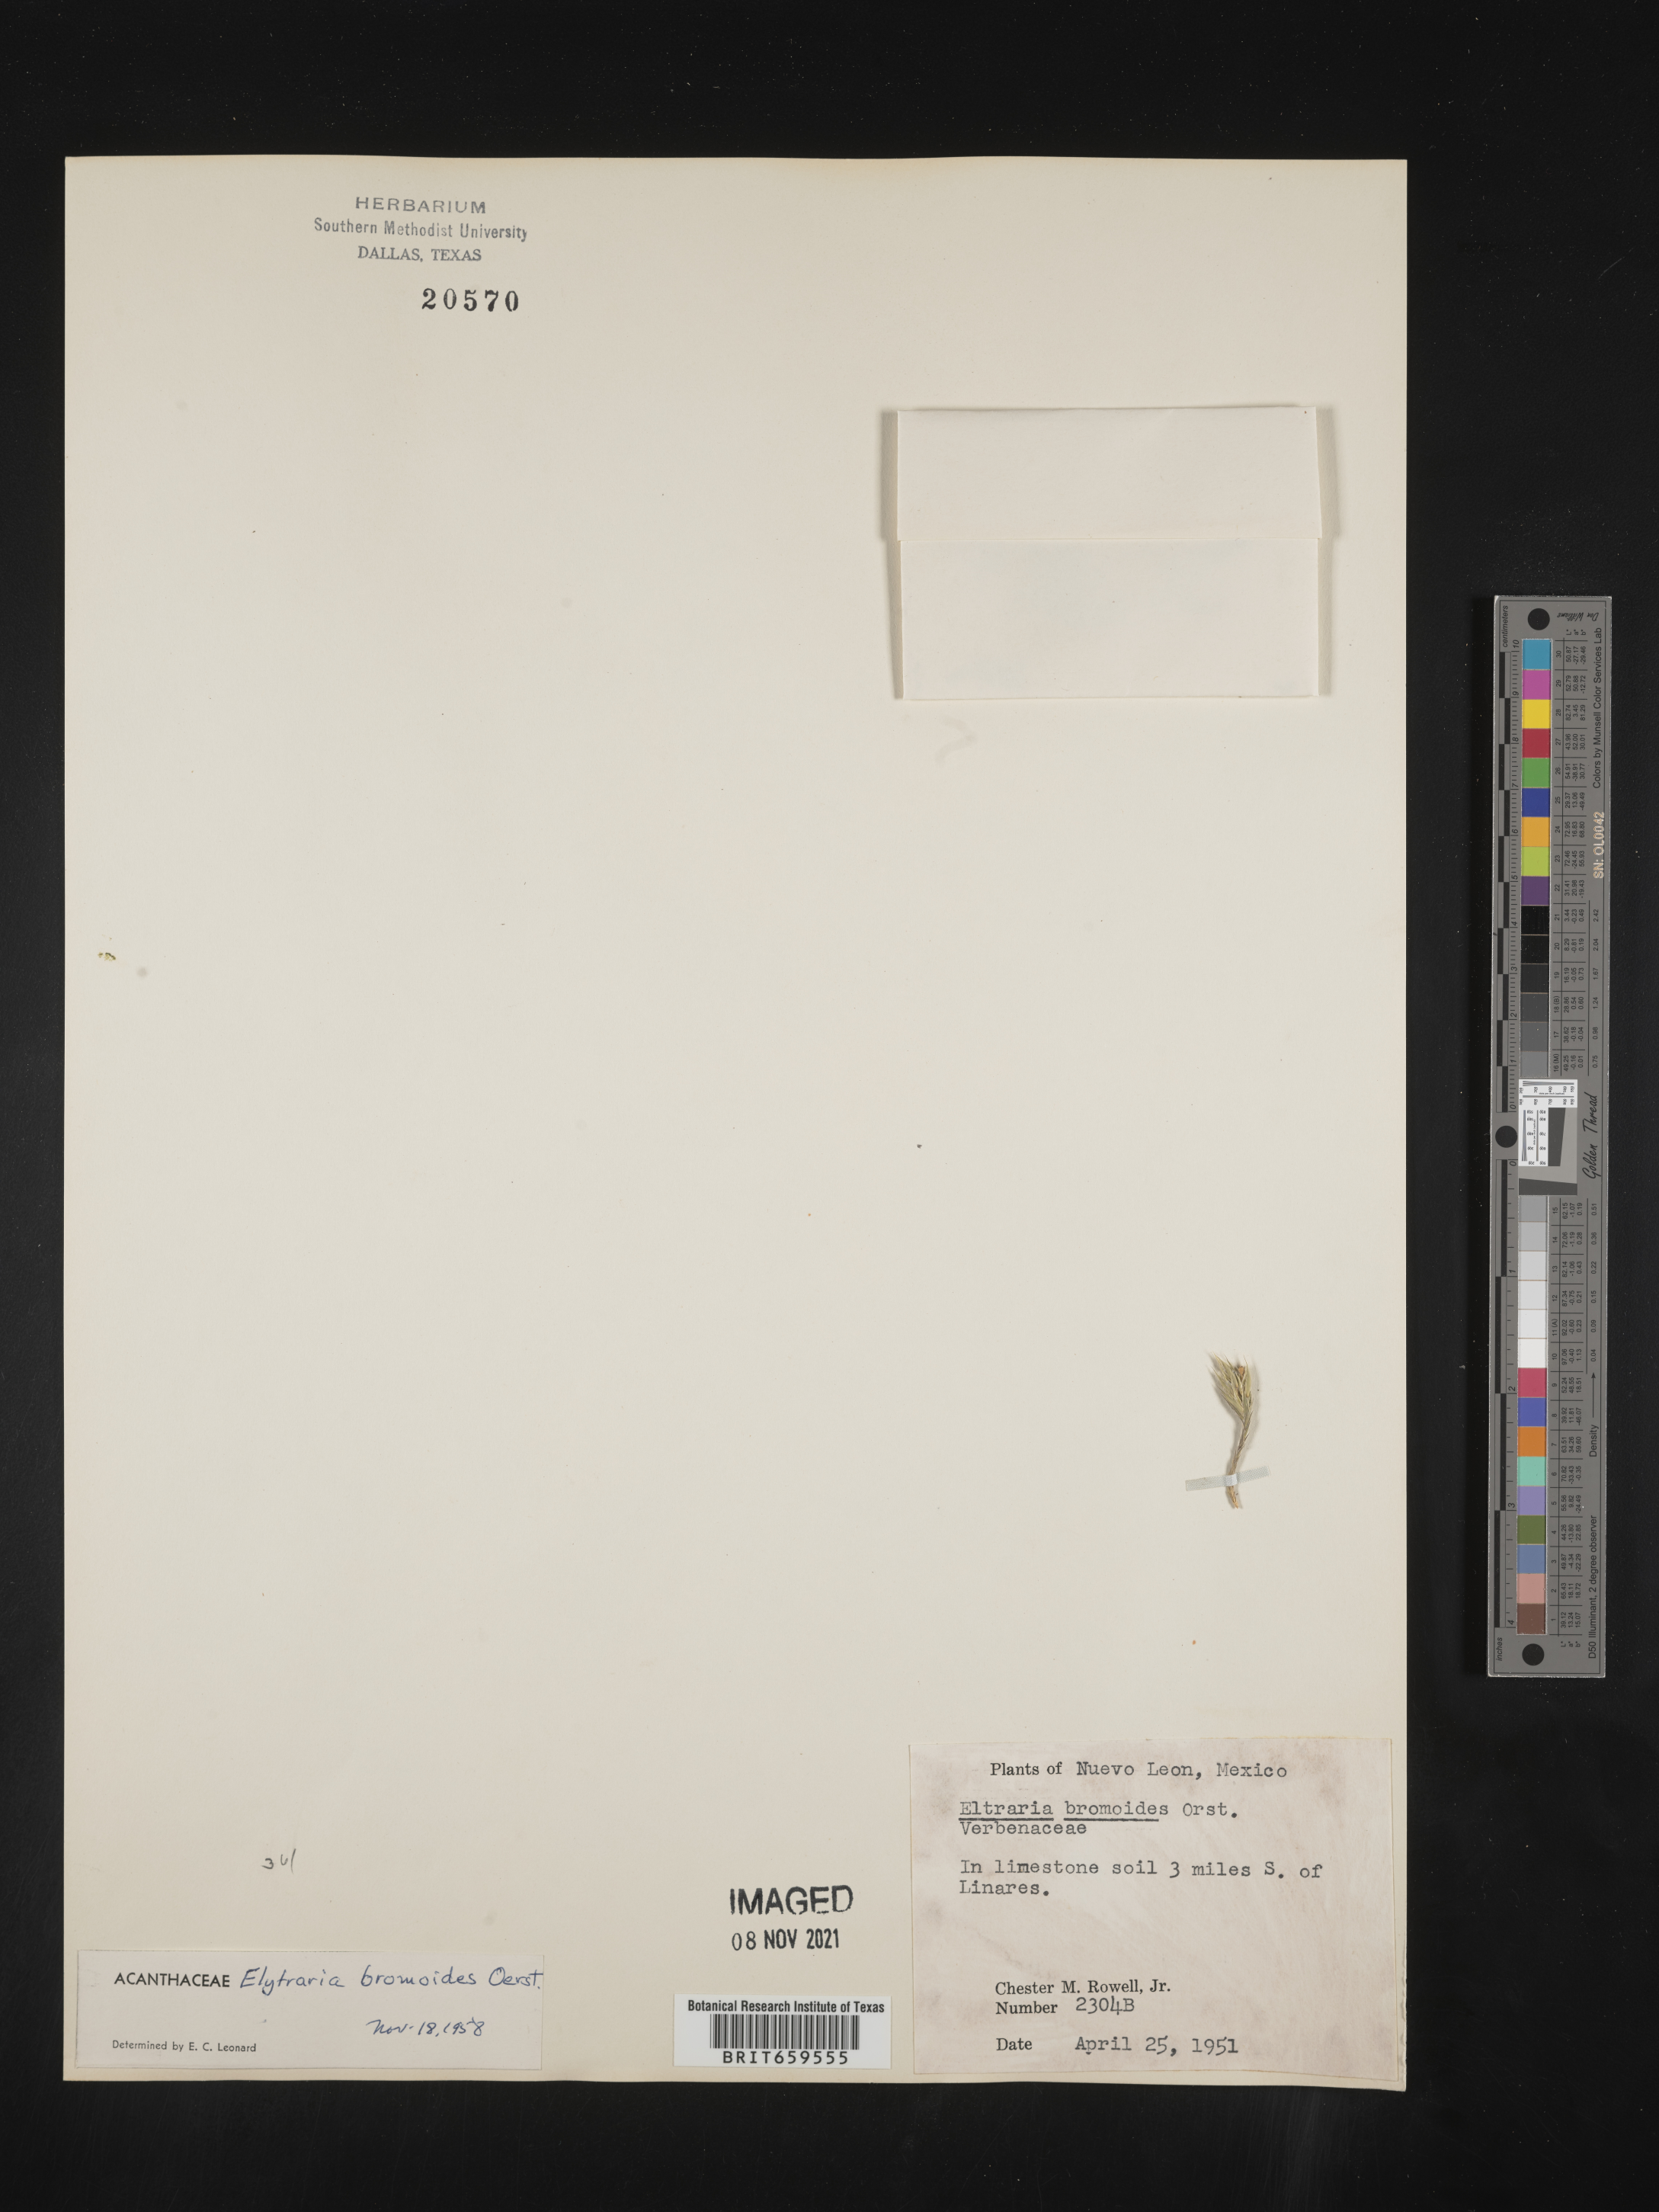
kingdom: Plantae
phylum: Tracheophyta
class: Magnoliopsida
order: Lamiales
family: Acanthaceae
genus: Elytraria
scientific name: Elytraria
